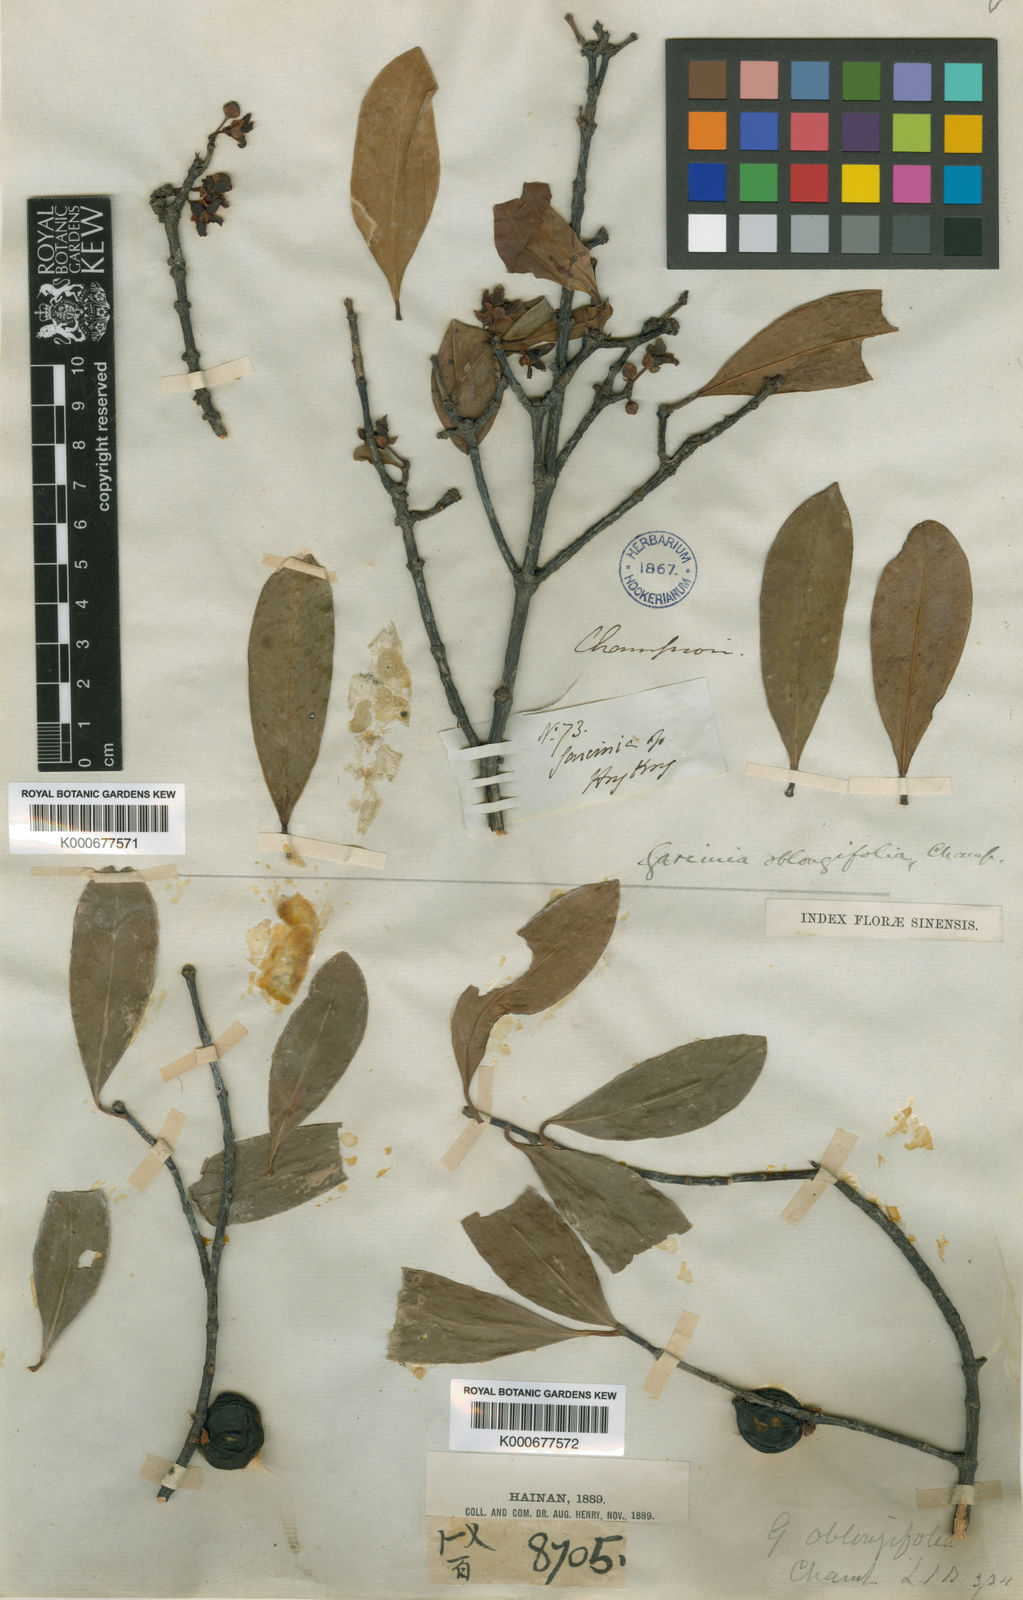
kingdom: Plantae
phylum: Tracheophyta
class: Magnoliopsida
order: Malpighiales
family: Clusiaceae
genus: Garcinia
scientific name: Garcinia oblongifolia
